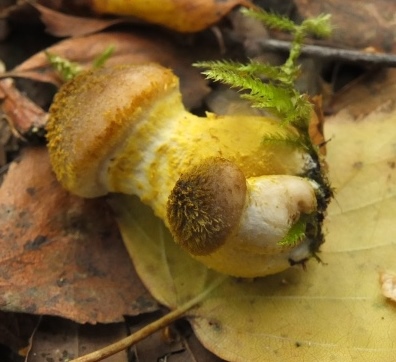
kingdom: Fungi
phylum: Basidiomycota
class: Agaricomycetes
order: Agaricales
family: Physalacriaceae
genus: Armillaria
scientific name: Armillaria lutea
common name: køllestokket honningsvamp
